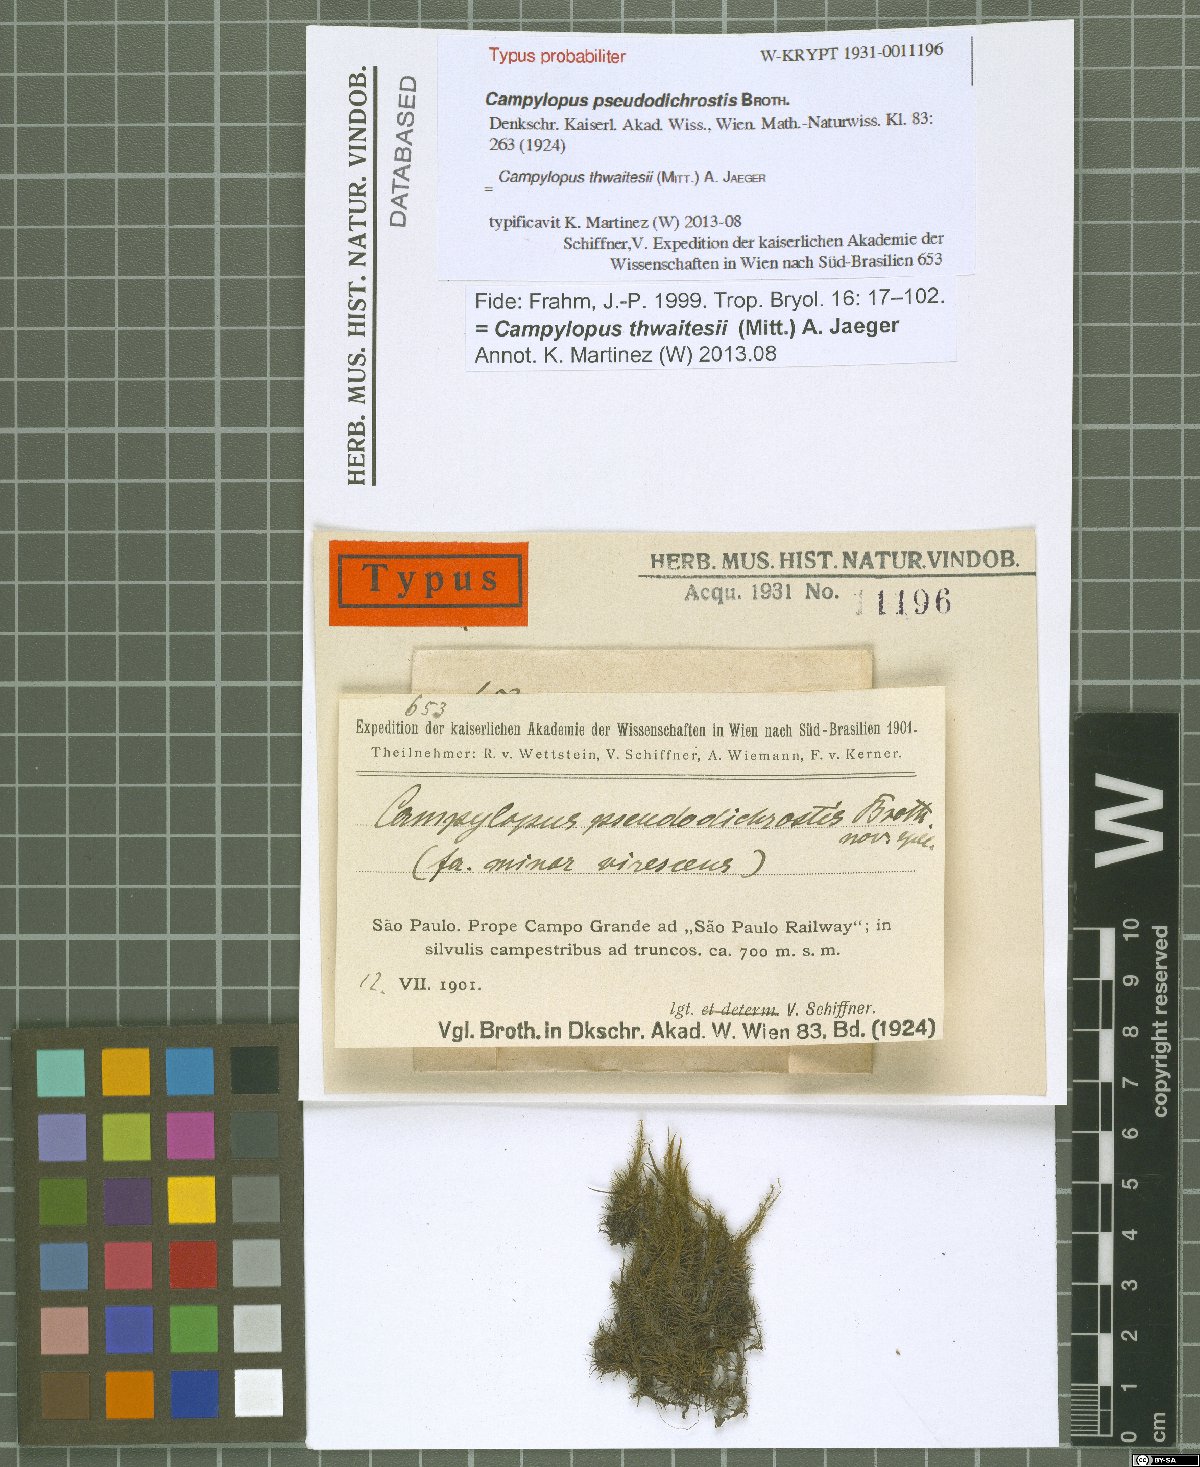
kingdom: Plantae
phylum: Bryophyta
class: Bryopsida
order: Dicranales
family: Leucobryaceae
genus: Campylopus
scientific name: Campylopus thwaitesii
